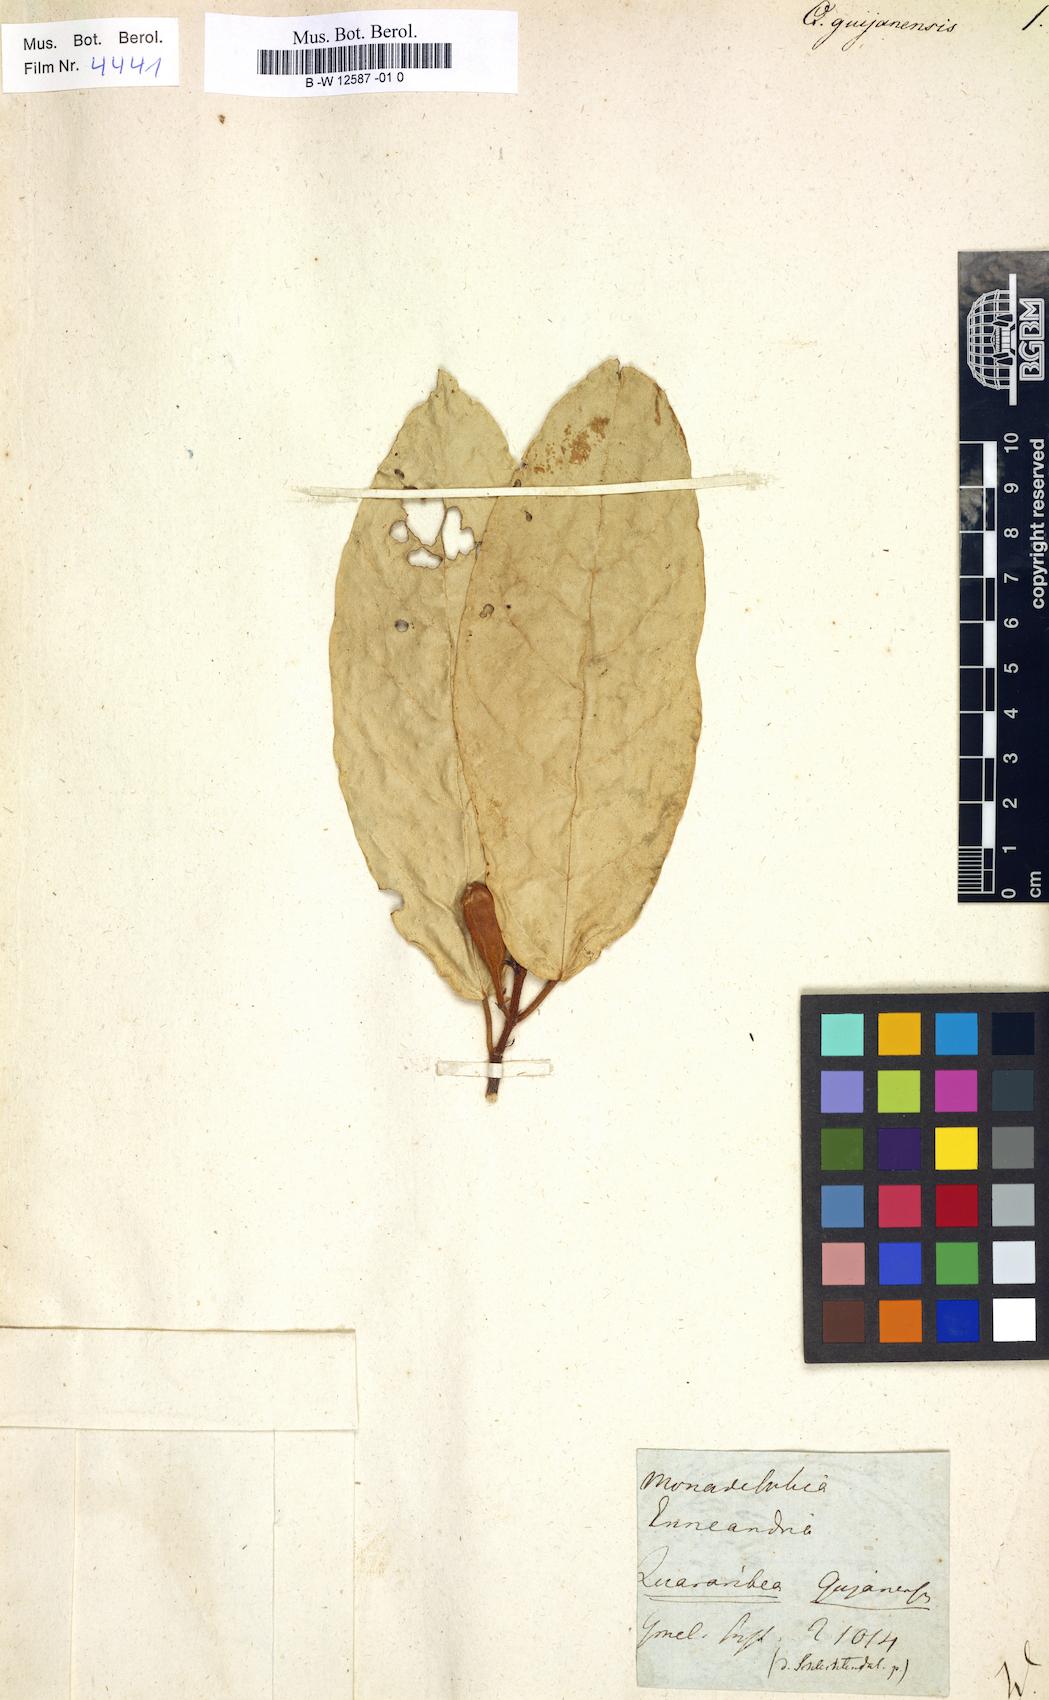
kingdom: Plantae
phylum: Tracheophyta
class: Magnoliopsida
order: Malvales
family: Malvaceae
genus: Quararibea
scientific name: Quararibea guianensis
